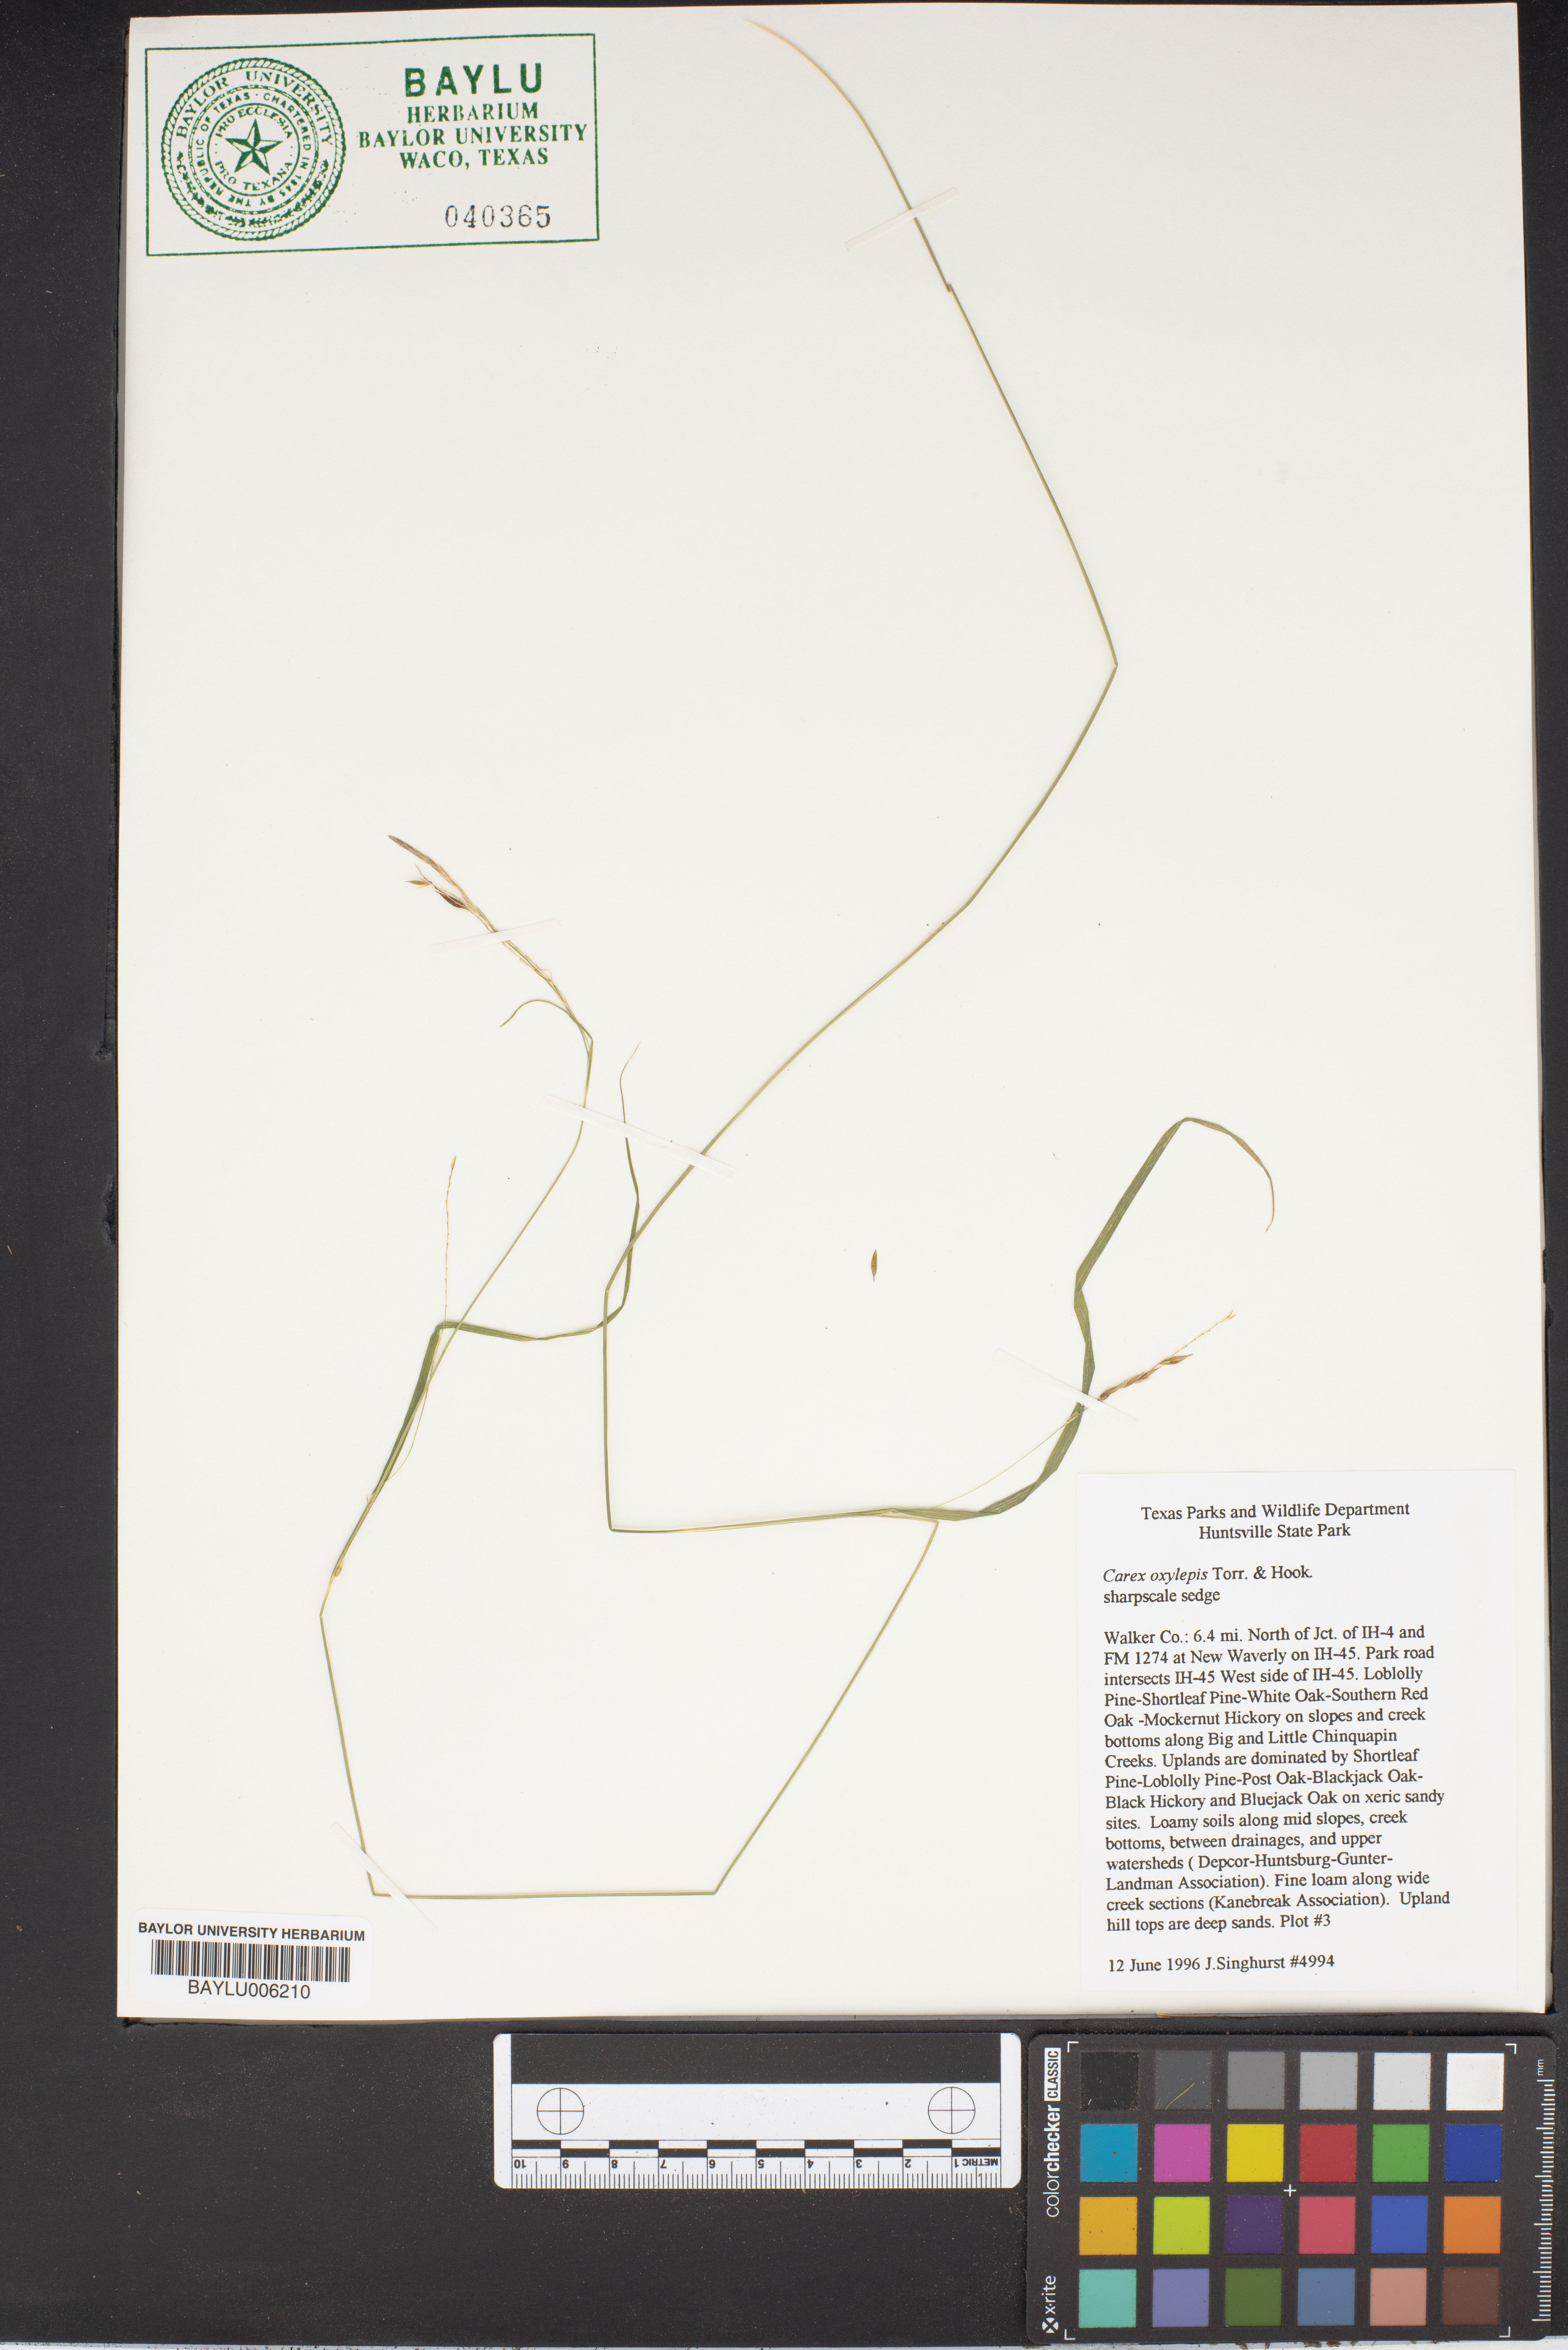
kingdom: Plantae
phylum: Tracheophyta
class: Liliopsida
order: Poales
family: Cyperaceae
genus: Carex
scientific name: Carex oxylepis
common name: Sharpscale sedge
